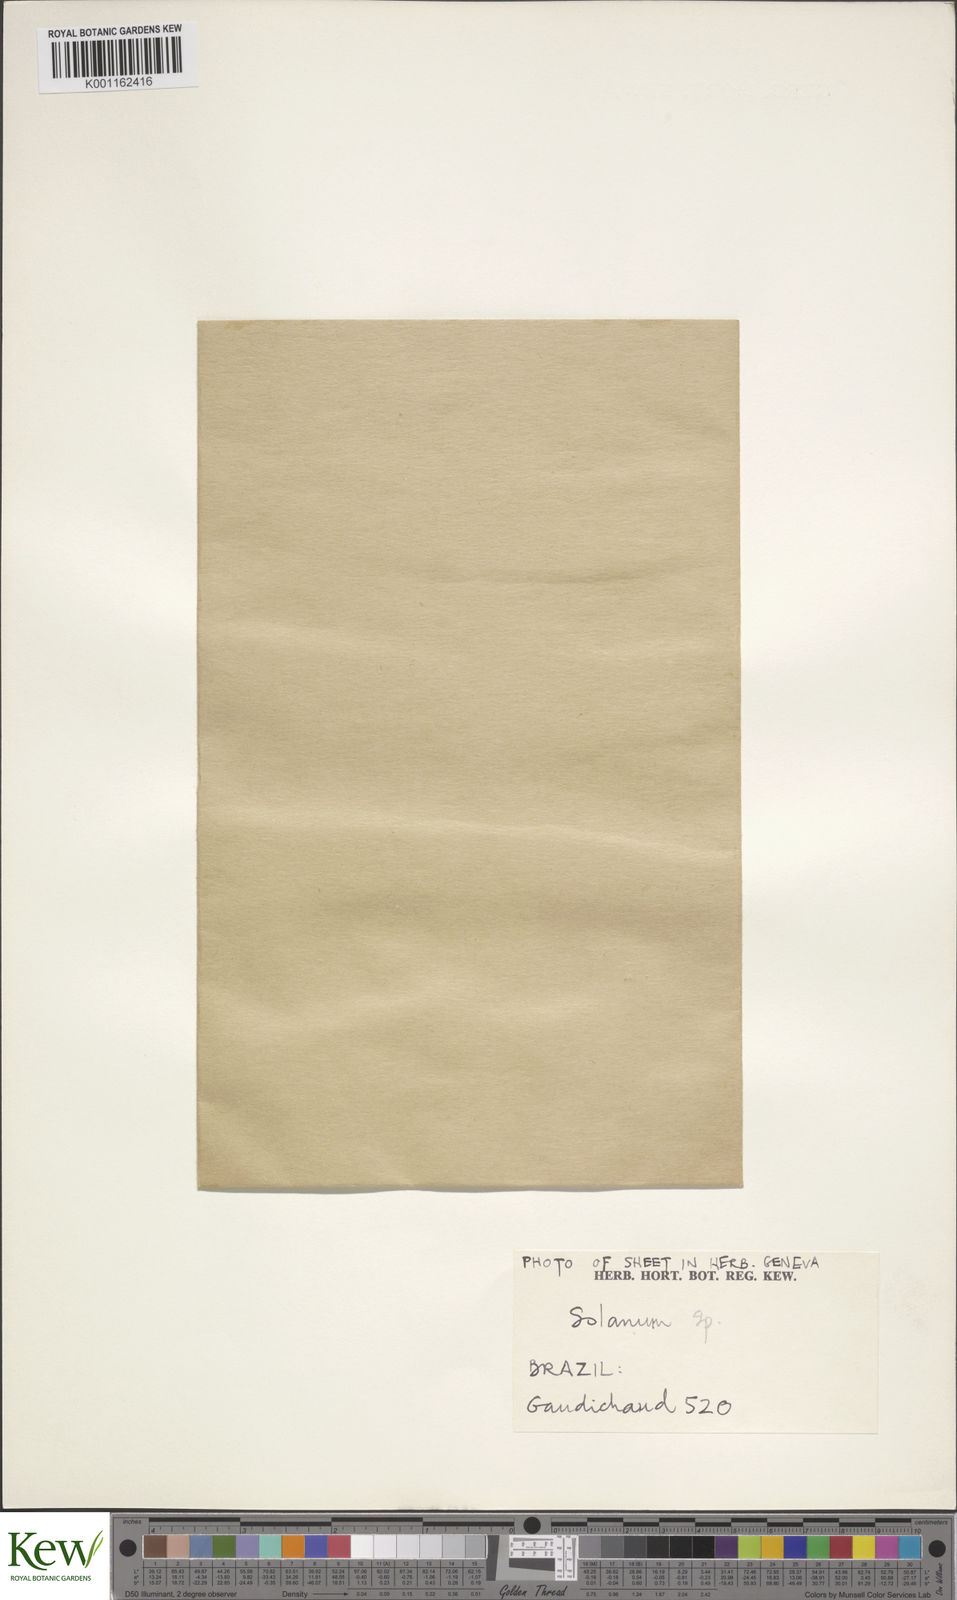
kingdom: Plantae
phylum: Tracheophyta
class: Magnoliopsida
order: Solanales
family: Solanaceae
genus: Solanum
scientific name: Solanum
